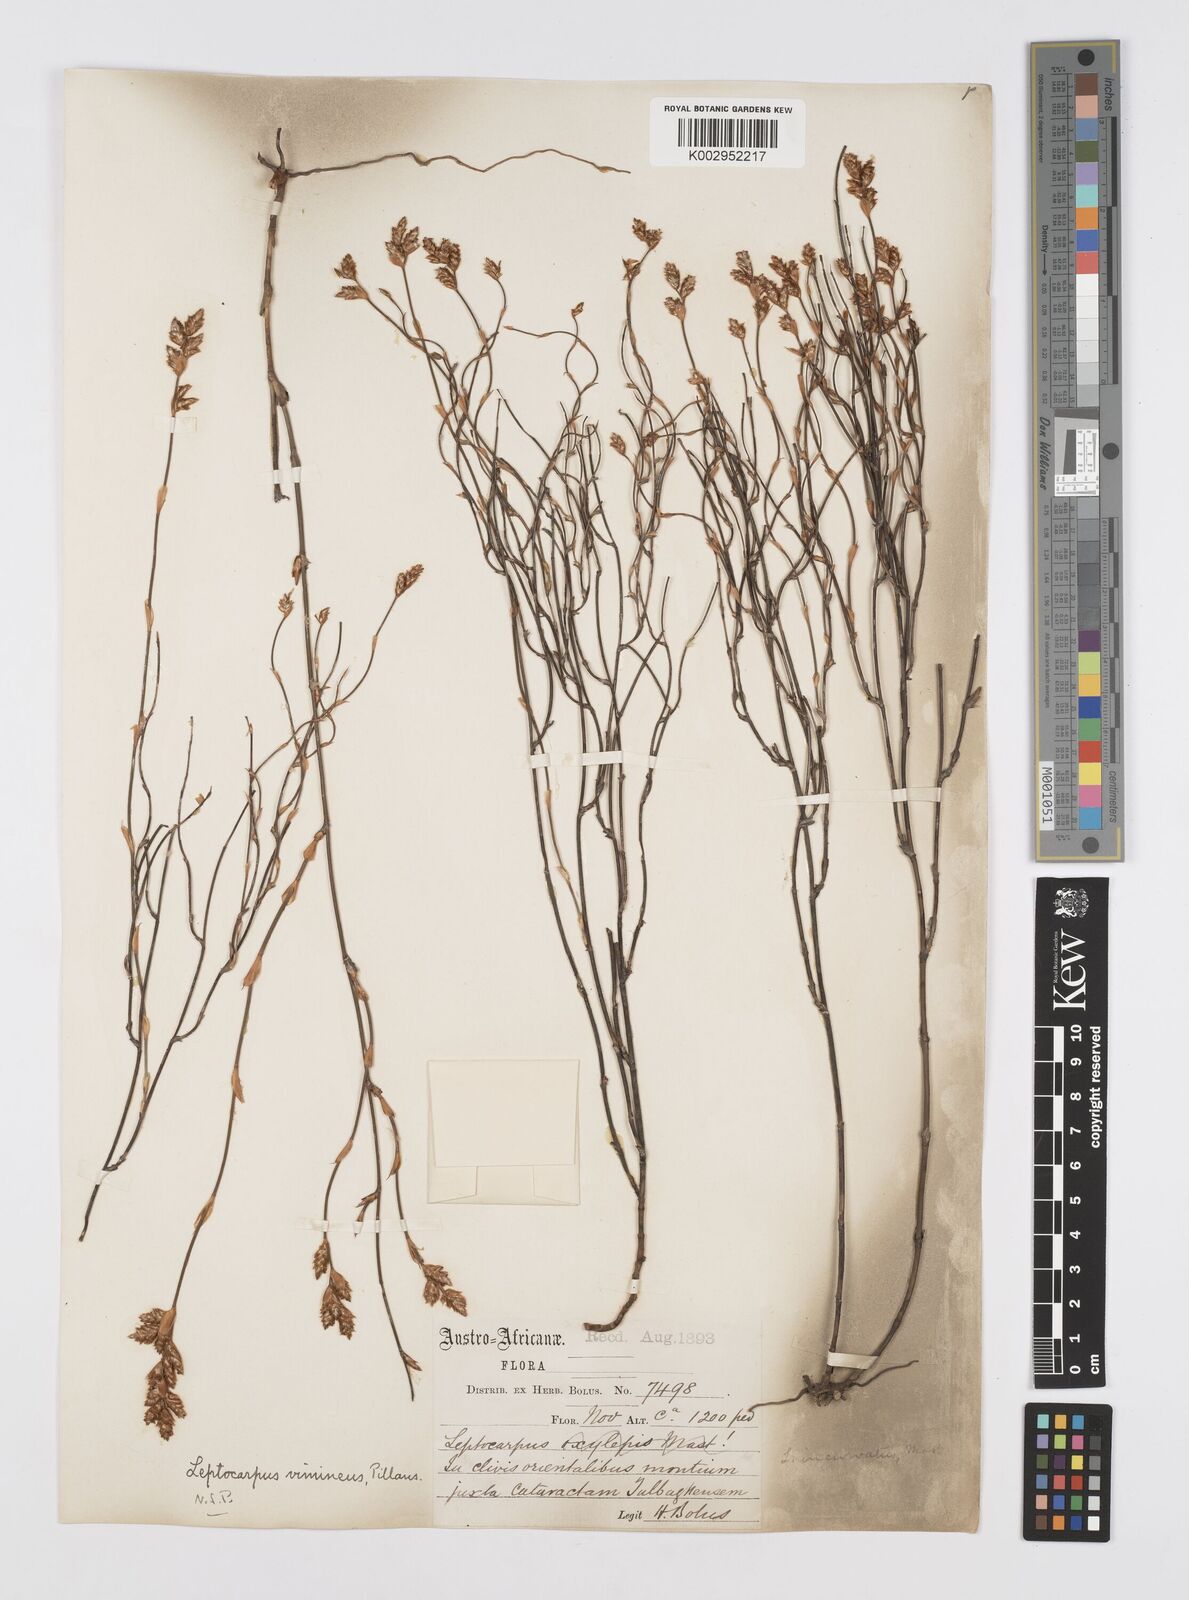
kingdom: Plantae
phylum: Tracheophyta
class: Liliopsida
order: Poales
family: Restionaceae
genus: Restio
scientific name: Restio vimineus
